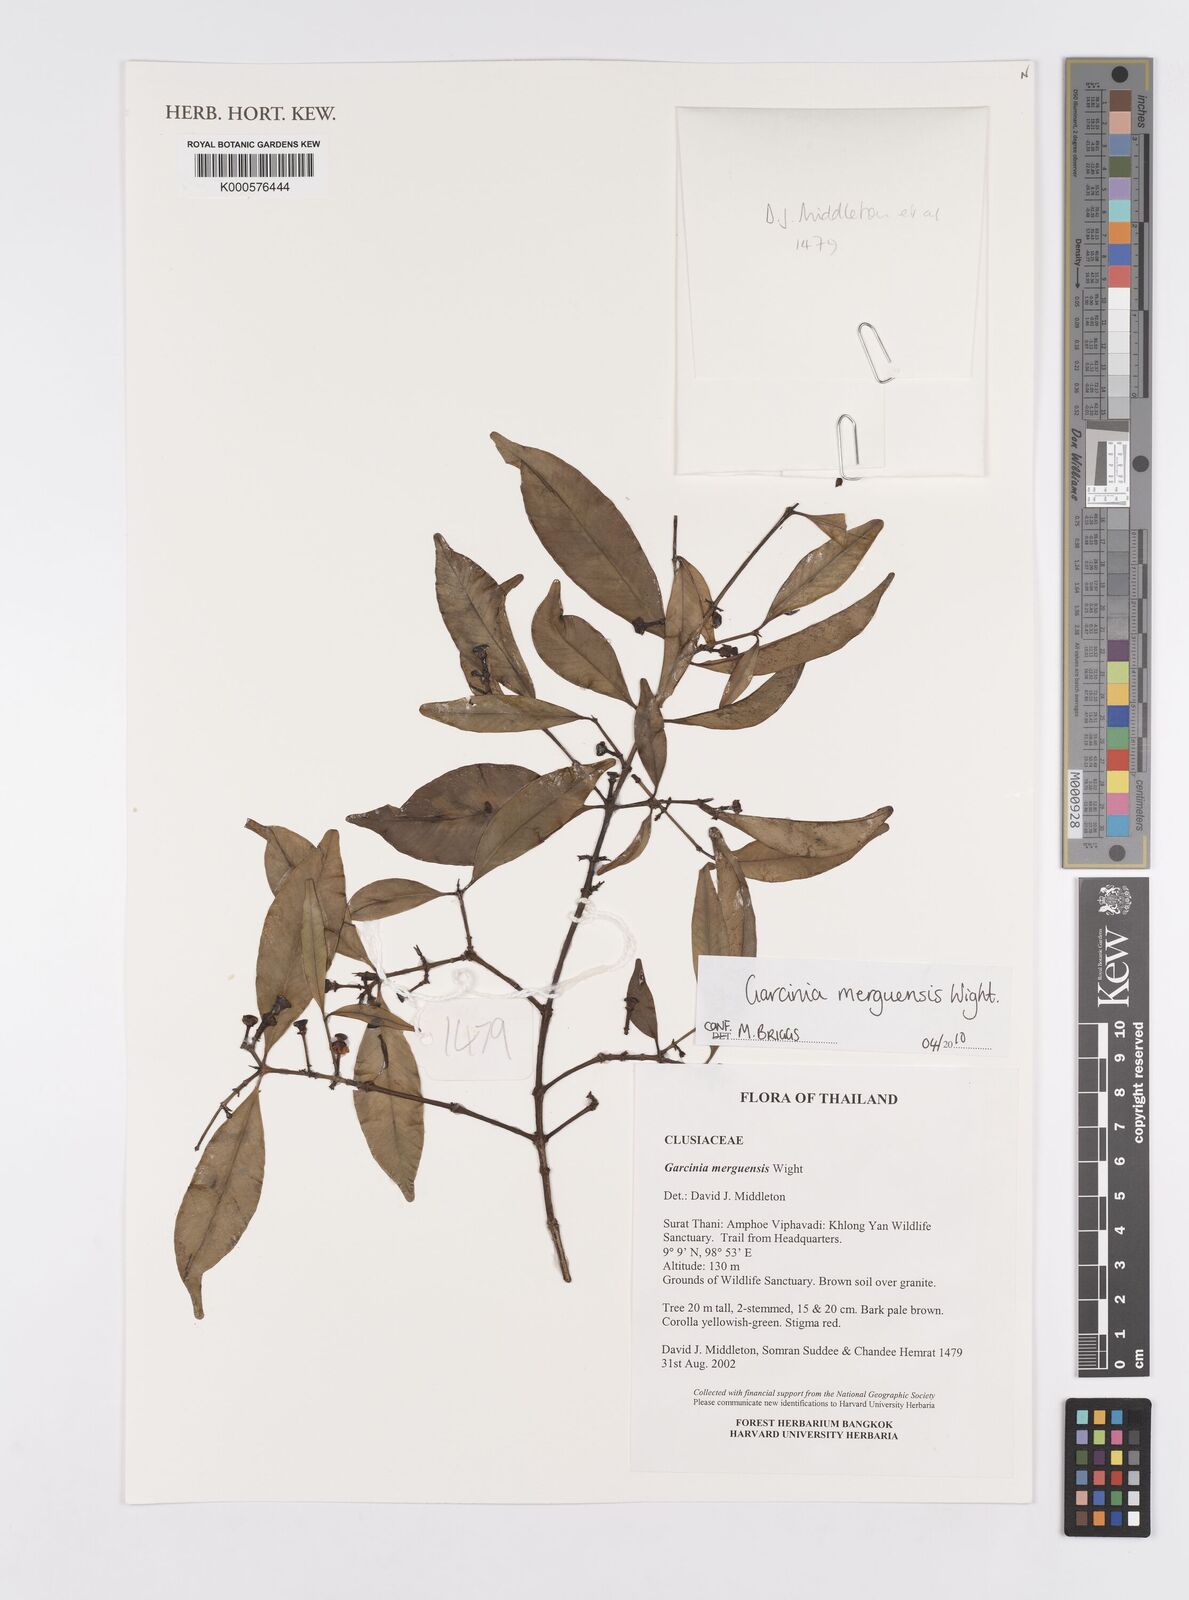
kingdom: Plantae
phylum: Tracheophyta
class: Magnoliopsida
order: Malpighiales
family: Clusiaceae
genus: Garcinia
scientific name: Garcinia merguensis
